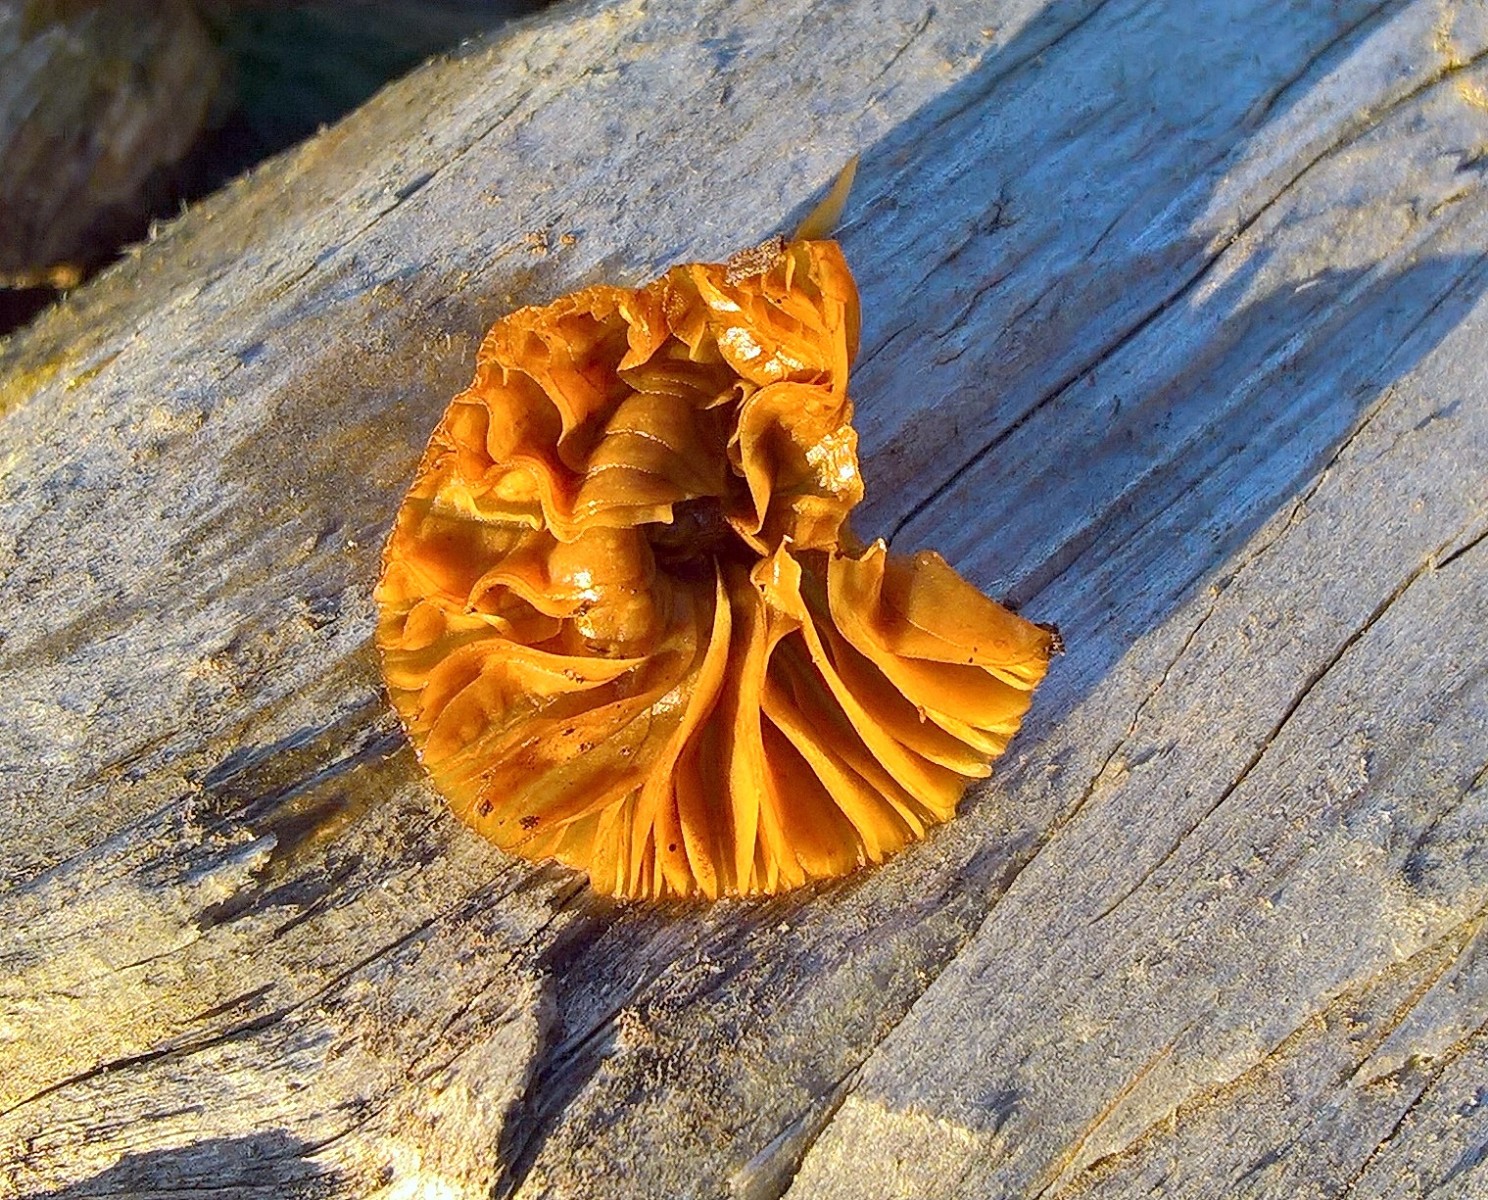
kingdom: Fungi
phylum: Basidiomycota
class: Agaricomycetes
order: Agaricales
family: Bolbitiaceae
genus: Conocybe
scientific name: Conocybe
